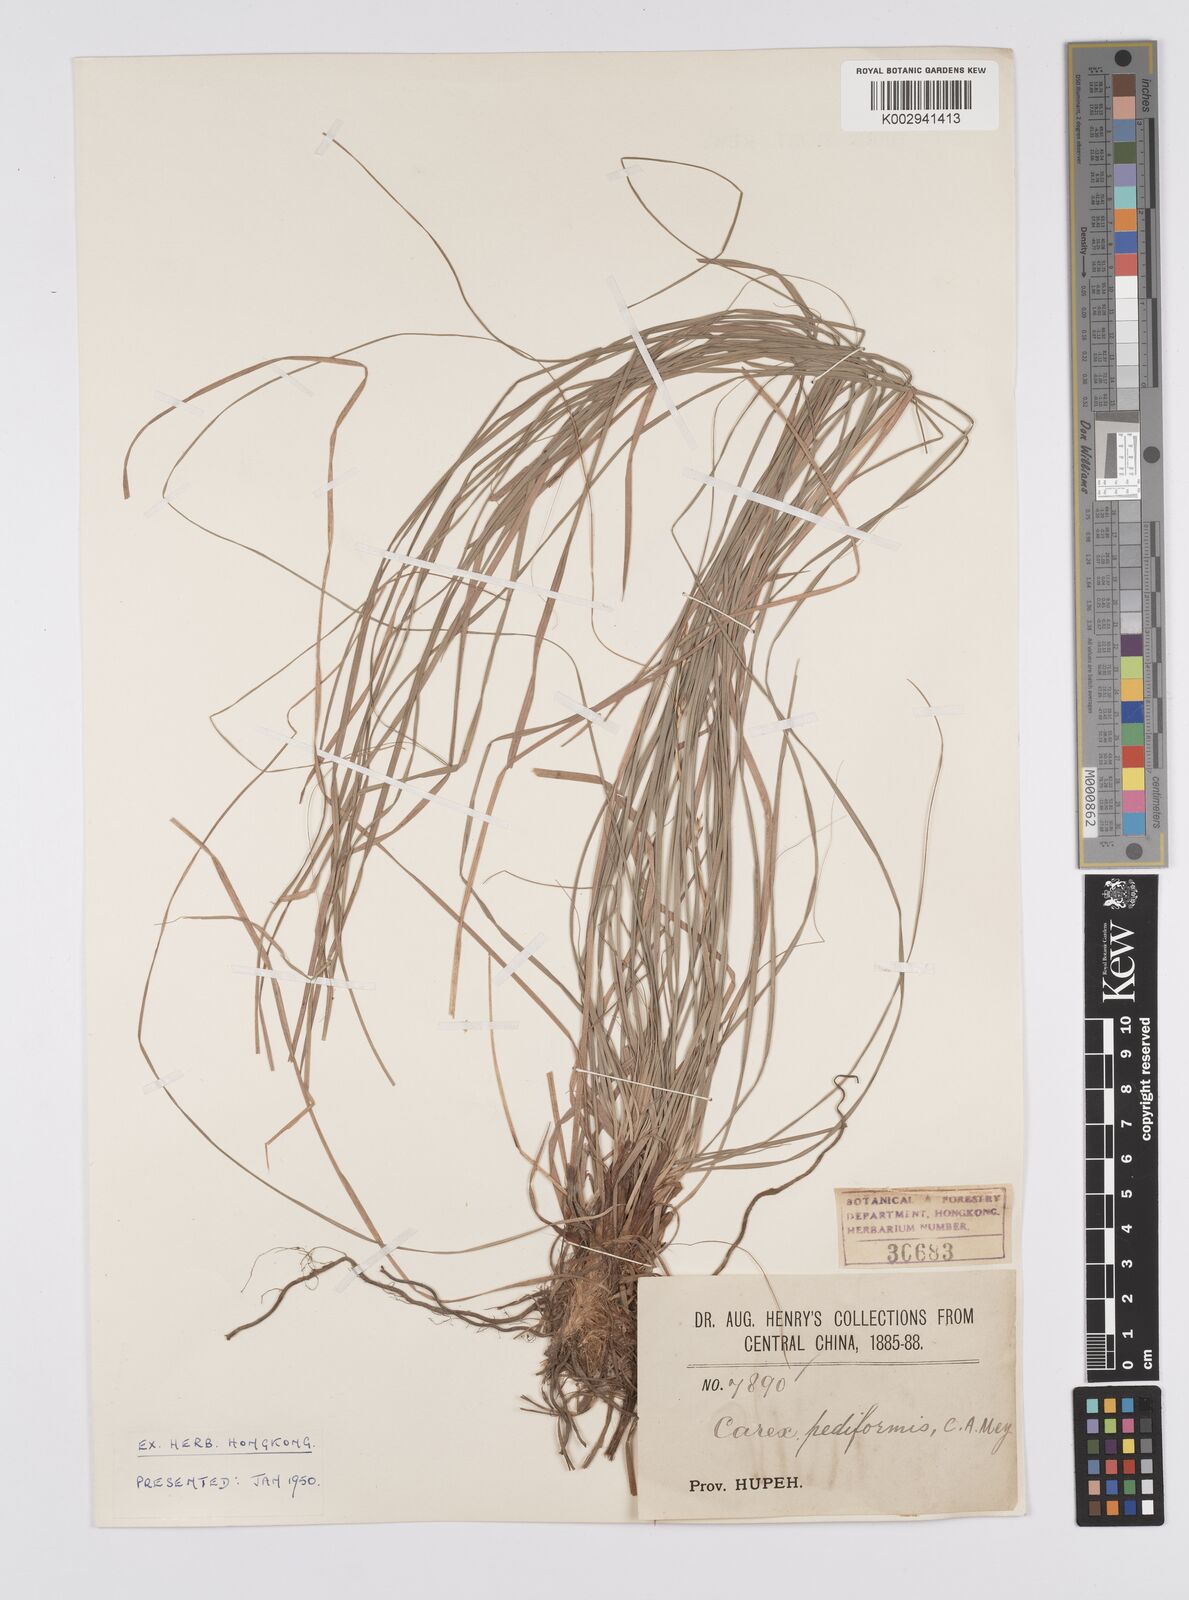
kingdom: Plantae
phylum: Tracheophyta
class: Liliopsida
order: Poales
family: Cyperaceae
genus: Carex
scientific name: Carex pediformis
